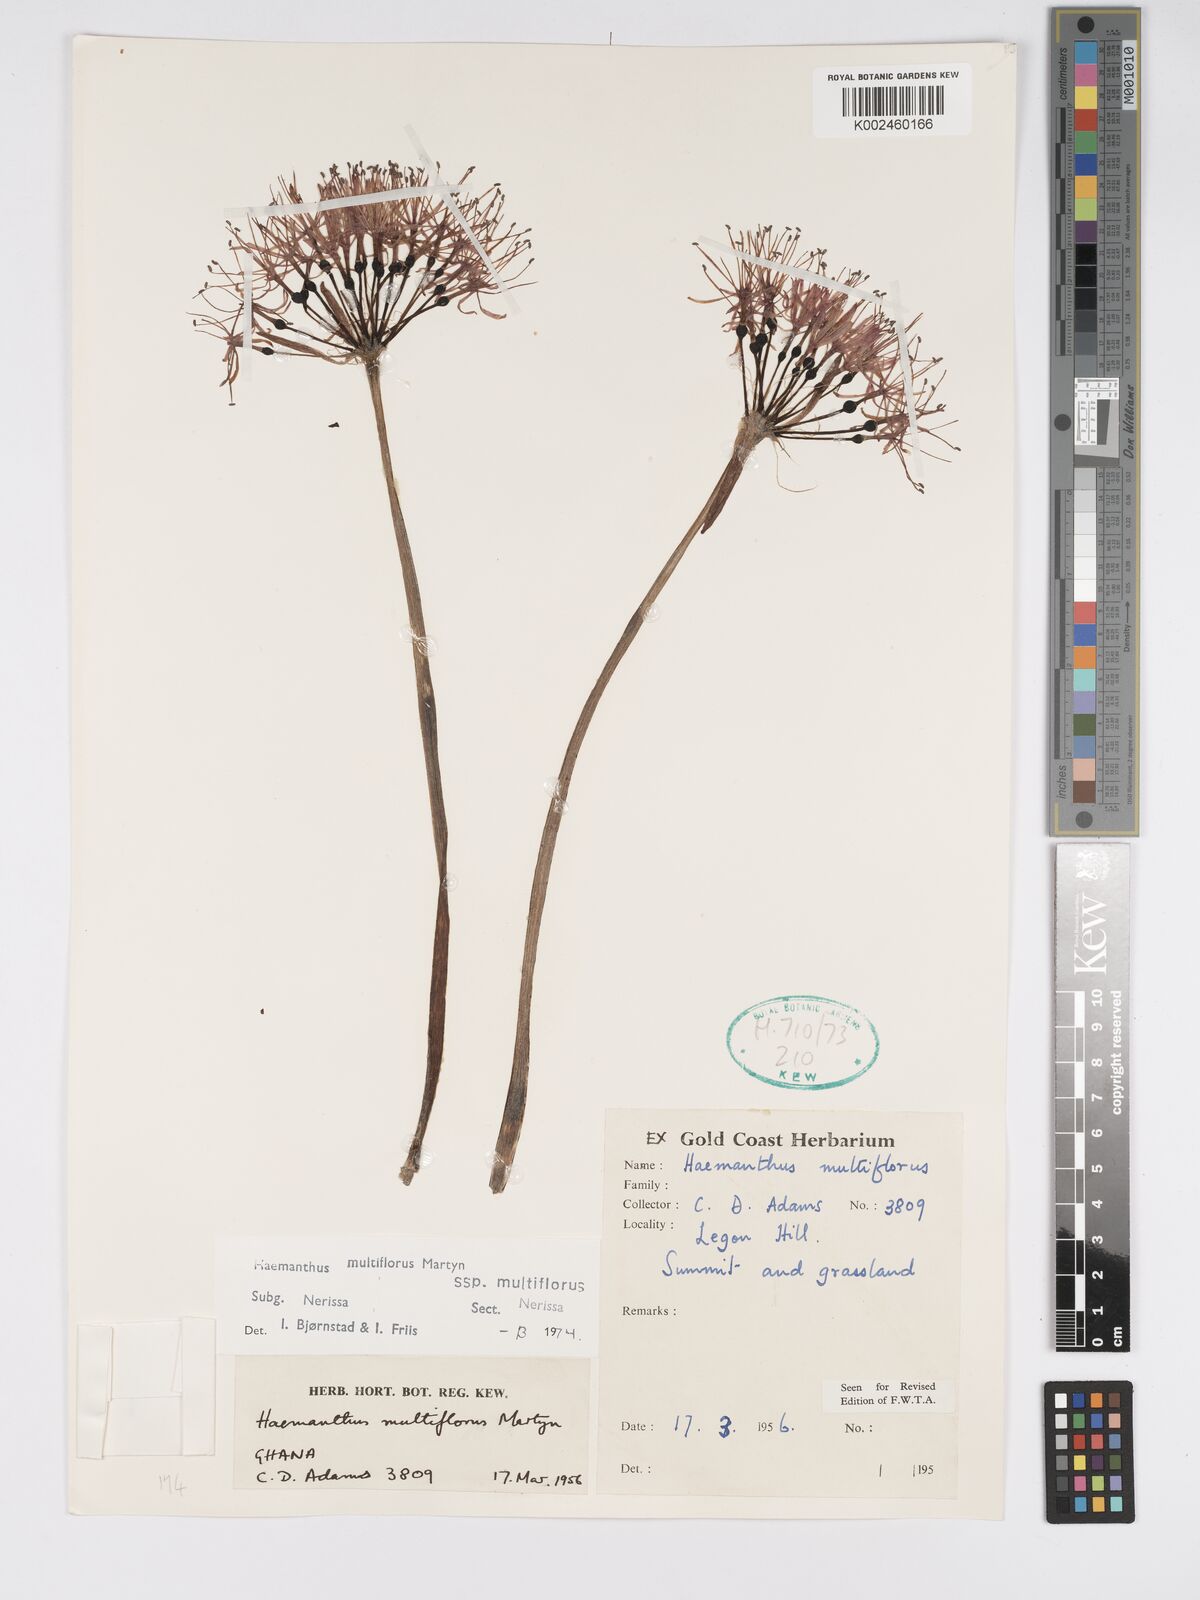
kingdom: Plantae
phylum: Tracheophyta
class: Liliopsida
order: Asparagales
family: Amaryllidaceae
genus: Scadoxus
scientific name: Scadoxus multiflorus
